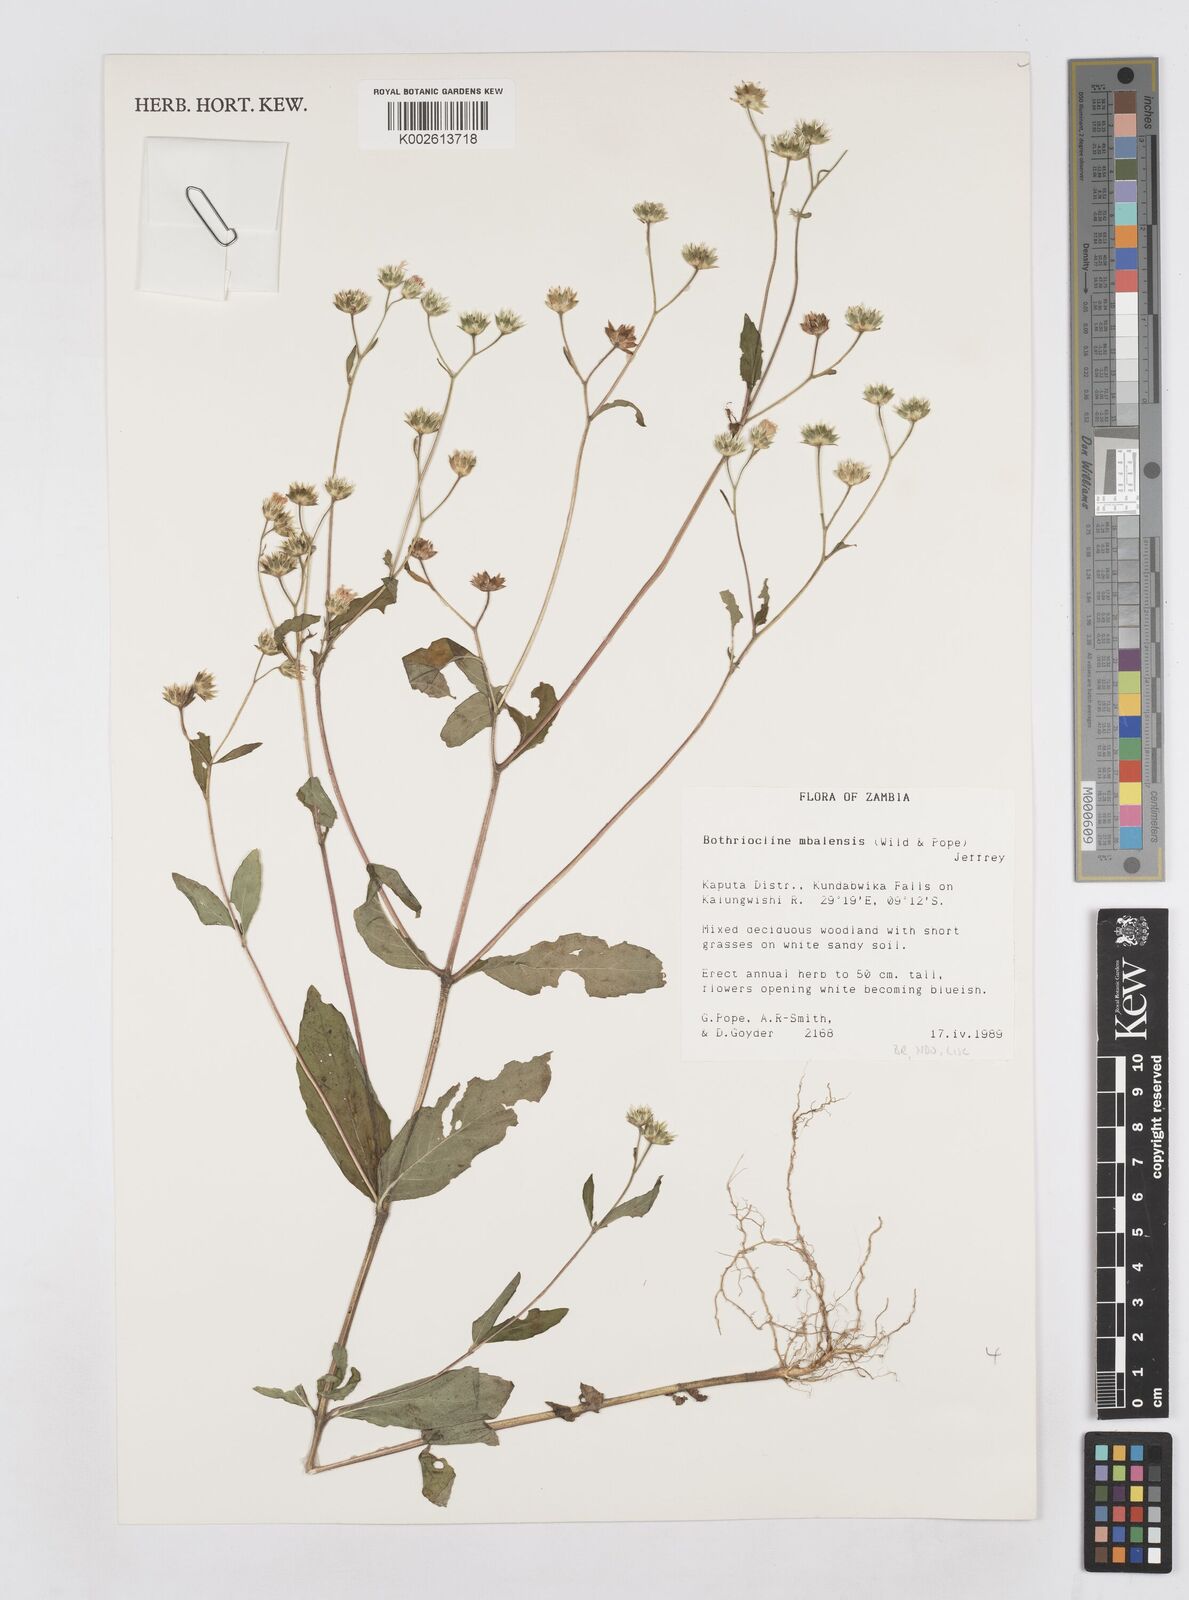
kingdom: Plantae
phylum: Tracheophyta
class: Magnoliopsida
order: Asterales
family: Asteraceae
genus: Bothriocline
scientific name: Bothriocline mbalensis
